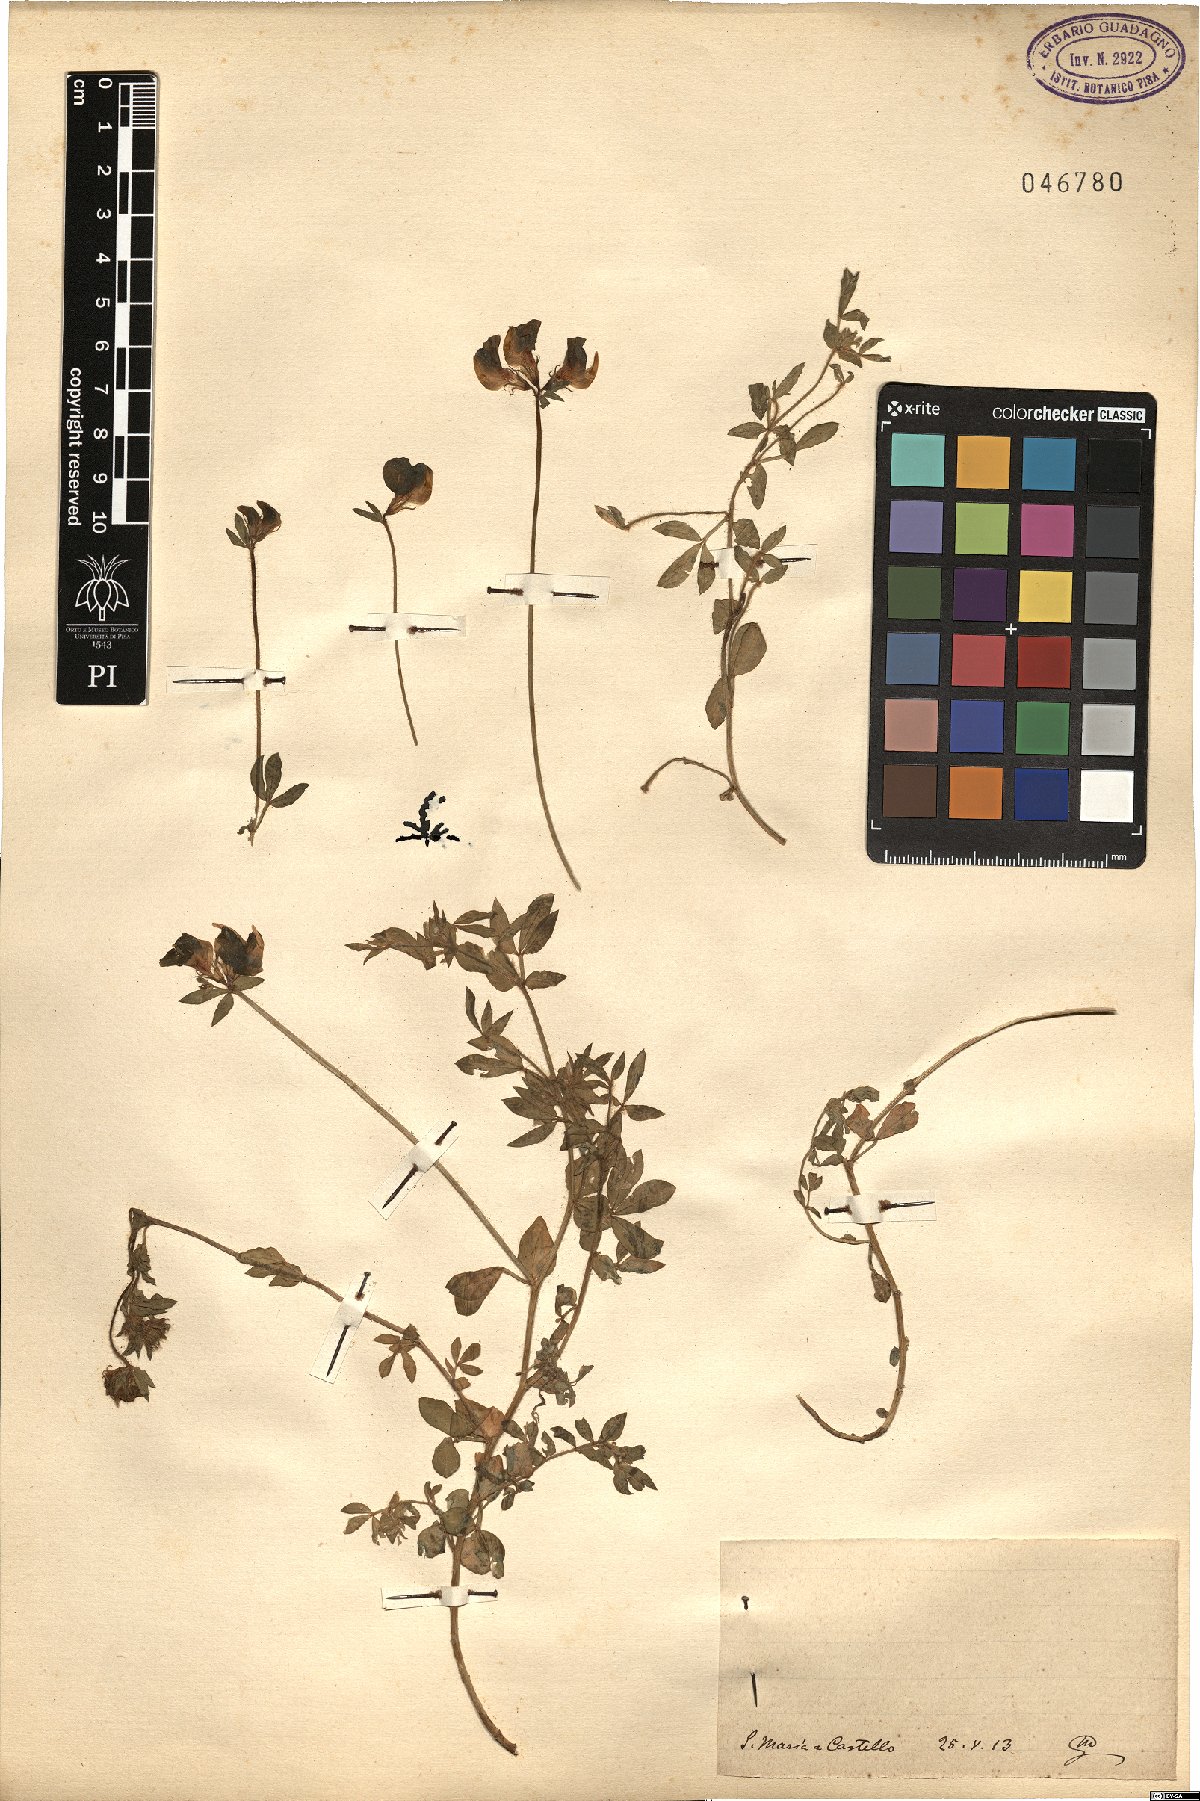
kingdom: Plantae
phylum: Tracheophyta
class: Magnoliopsida
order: Fabales
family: Fabaceae
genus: Lotus
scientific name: Lotus
